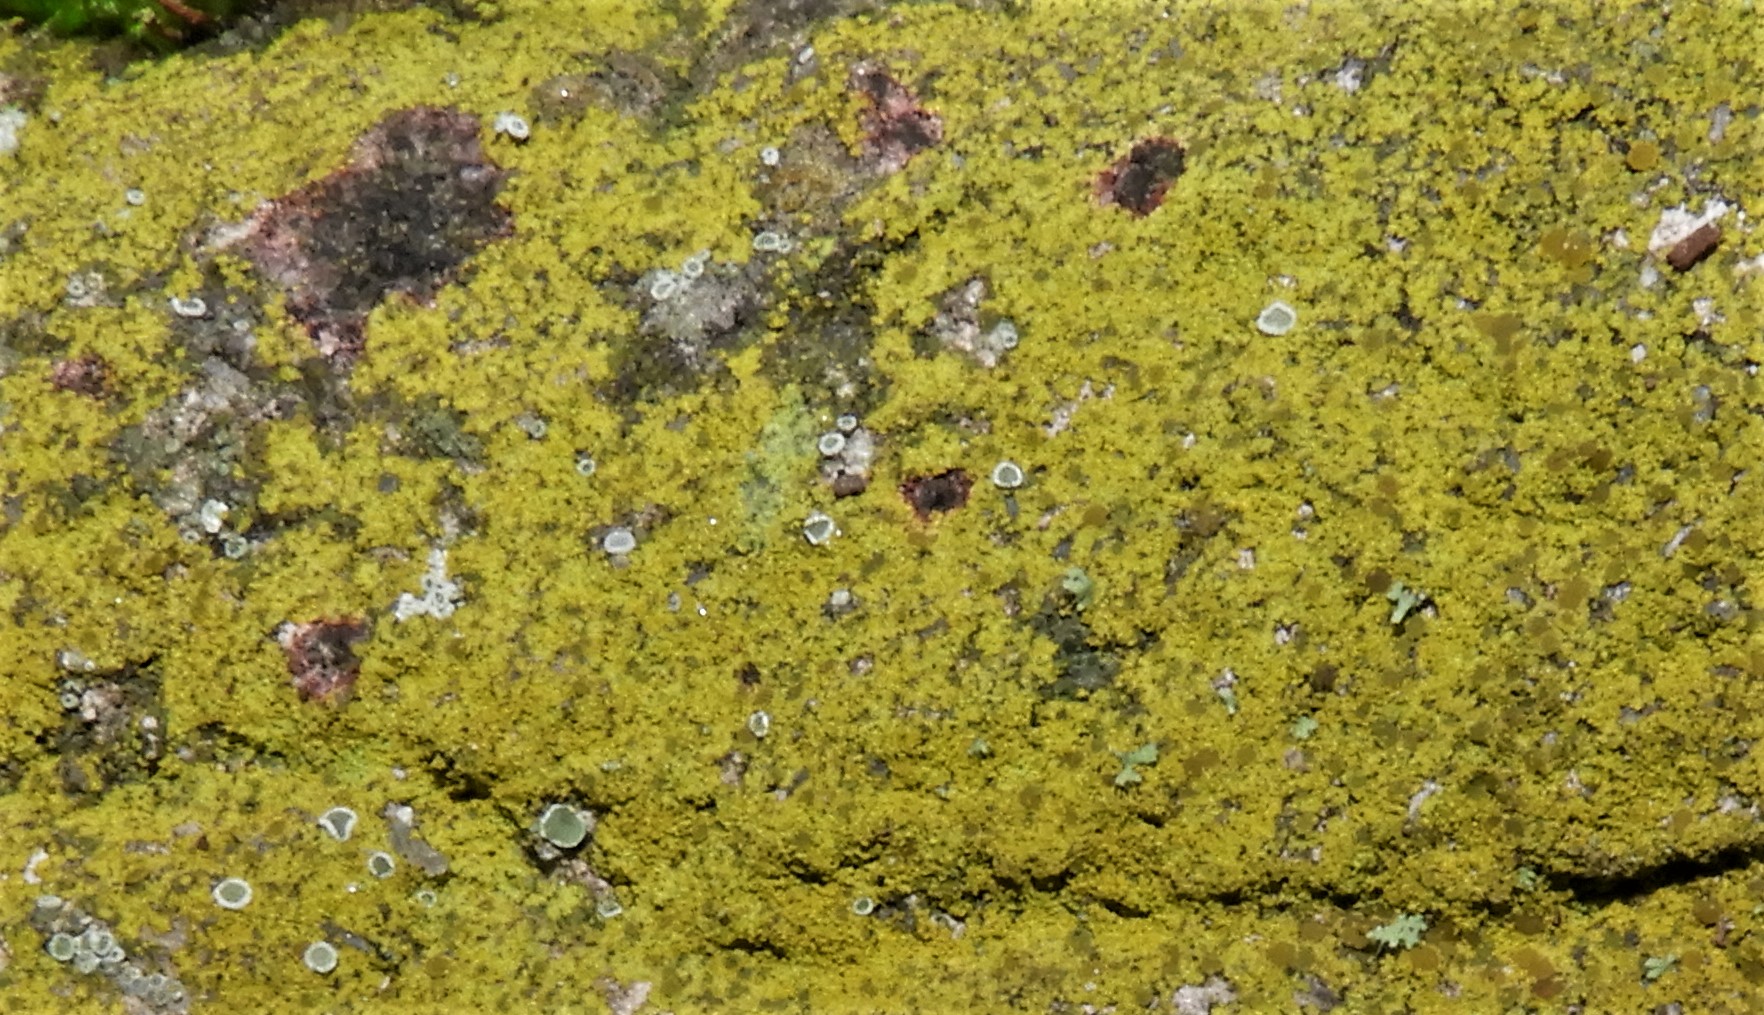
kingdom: Fungi
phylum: Ascomycota
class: Candelariomycetes
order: Candelariales
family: Candelariaceae
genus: Candelariella
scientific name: Candelariella vitellina
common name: almindelig æggeblommelav
